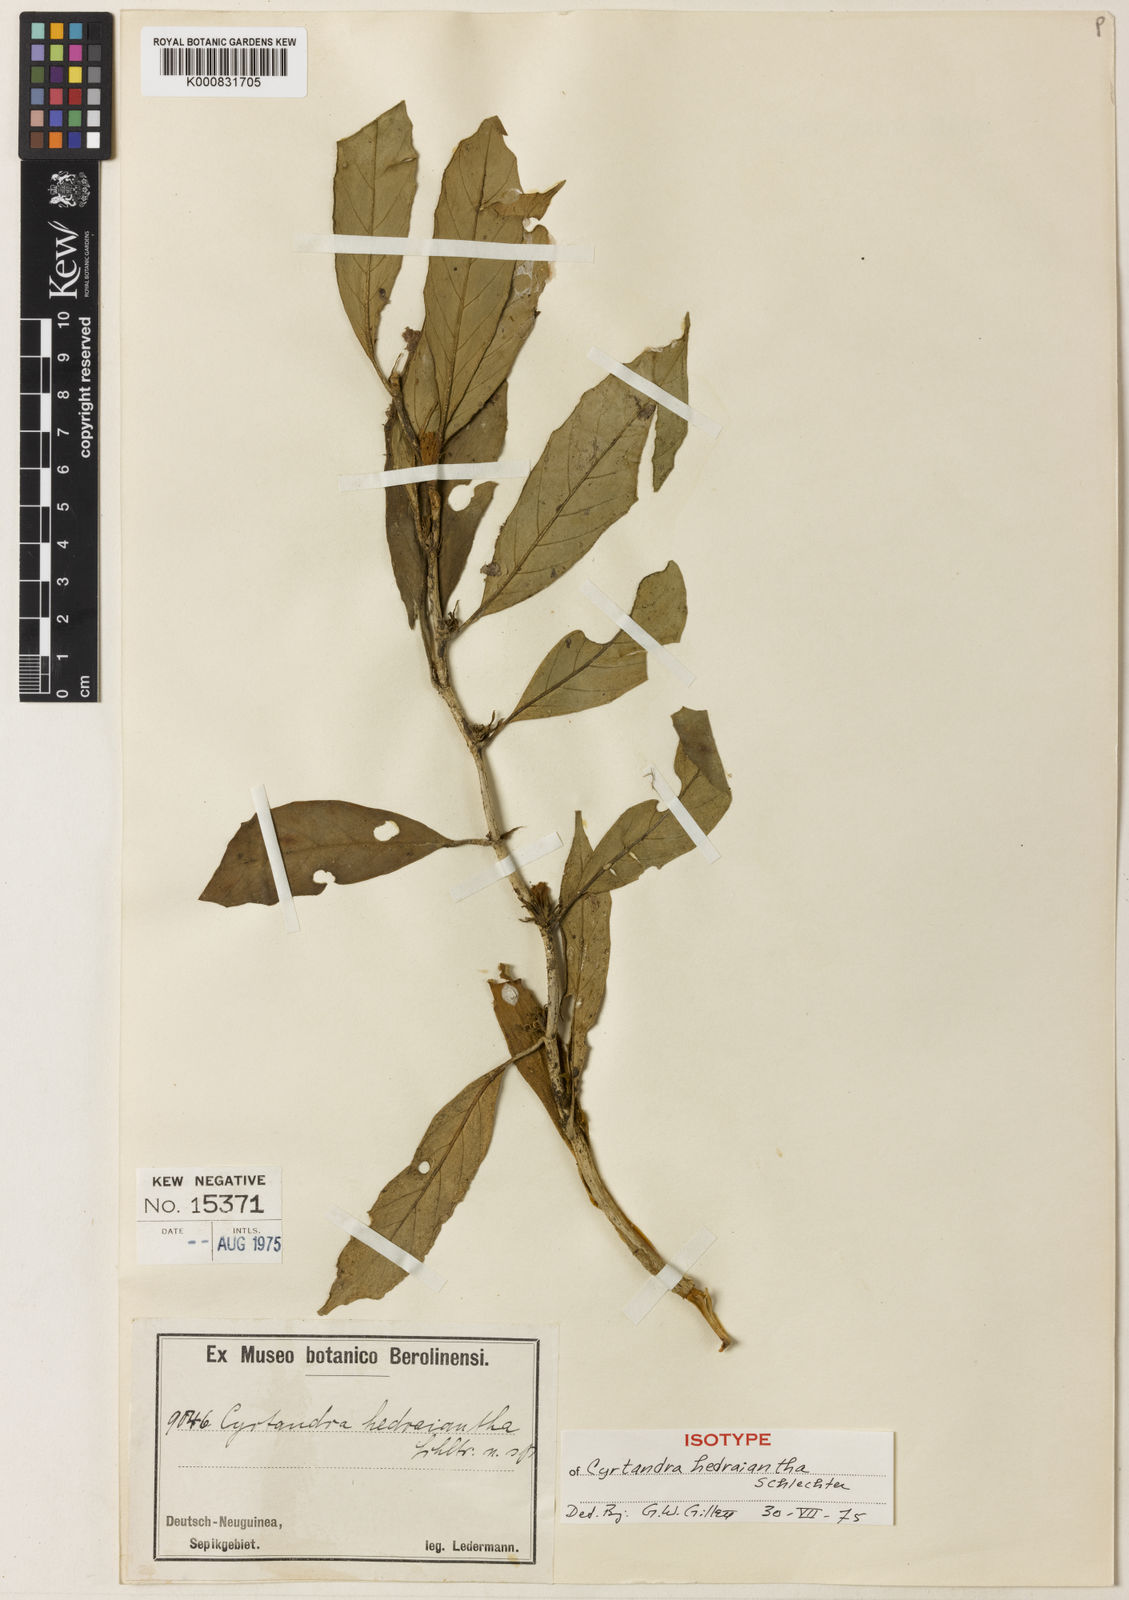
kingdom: Plantae
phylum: Tracheophyta
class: Magnoliopsida
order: Lamiales
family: Gesneriaceae
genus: Cyrtandra
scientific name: Cyrtandra hedraiantha
